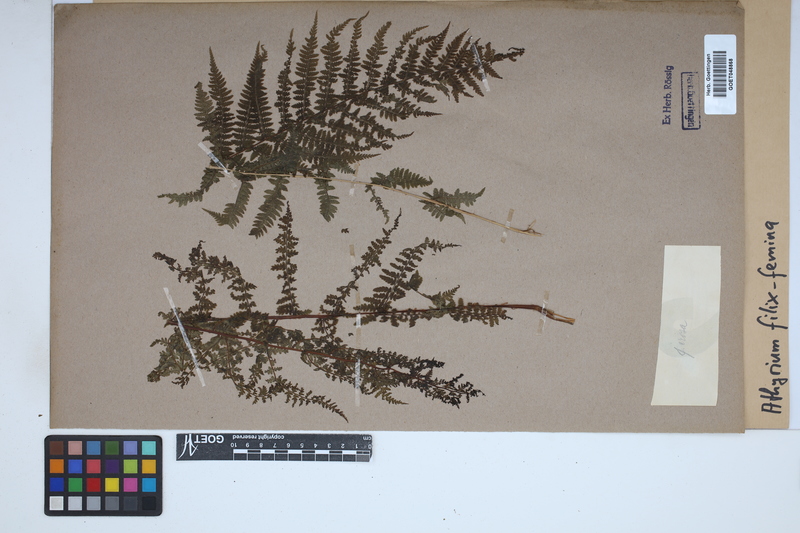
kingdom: Plantae
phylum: Tracheophyta
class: Polypodiopsida
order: Polypodiales
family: Athyriaceae
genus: Athyrium
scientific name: Athyrium filix-femina
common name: Lady fern
